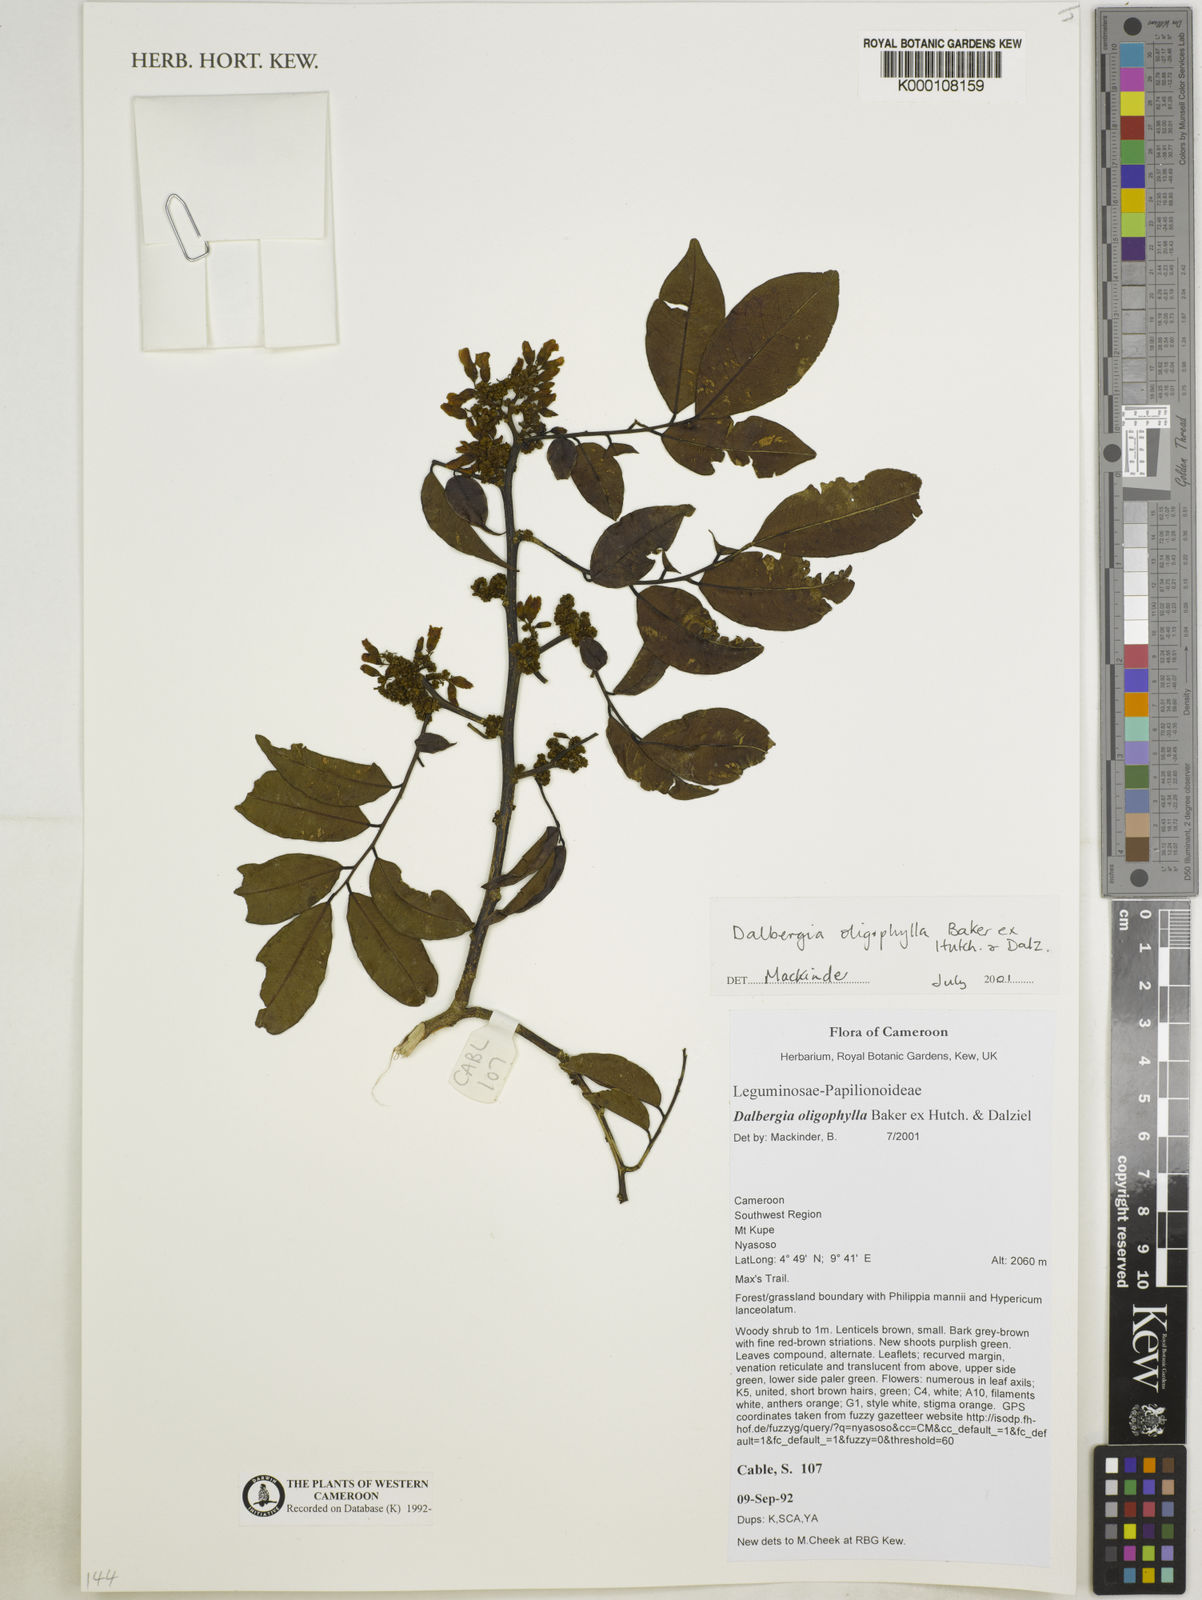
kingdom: Plantae
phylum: Tracheophyta
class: Magnoliopsida
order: Fabales
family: Fabaceae
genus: Dalbergia
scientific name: Dalbergia oligophylla
